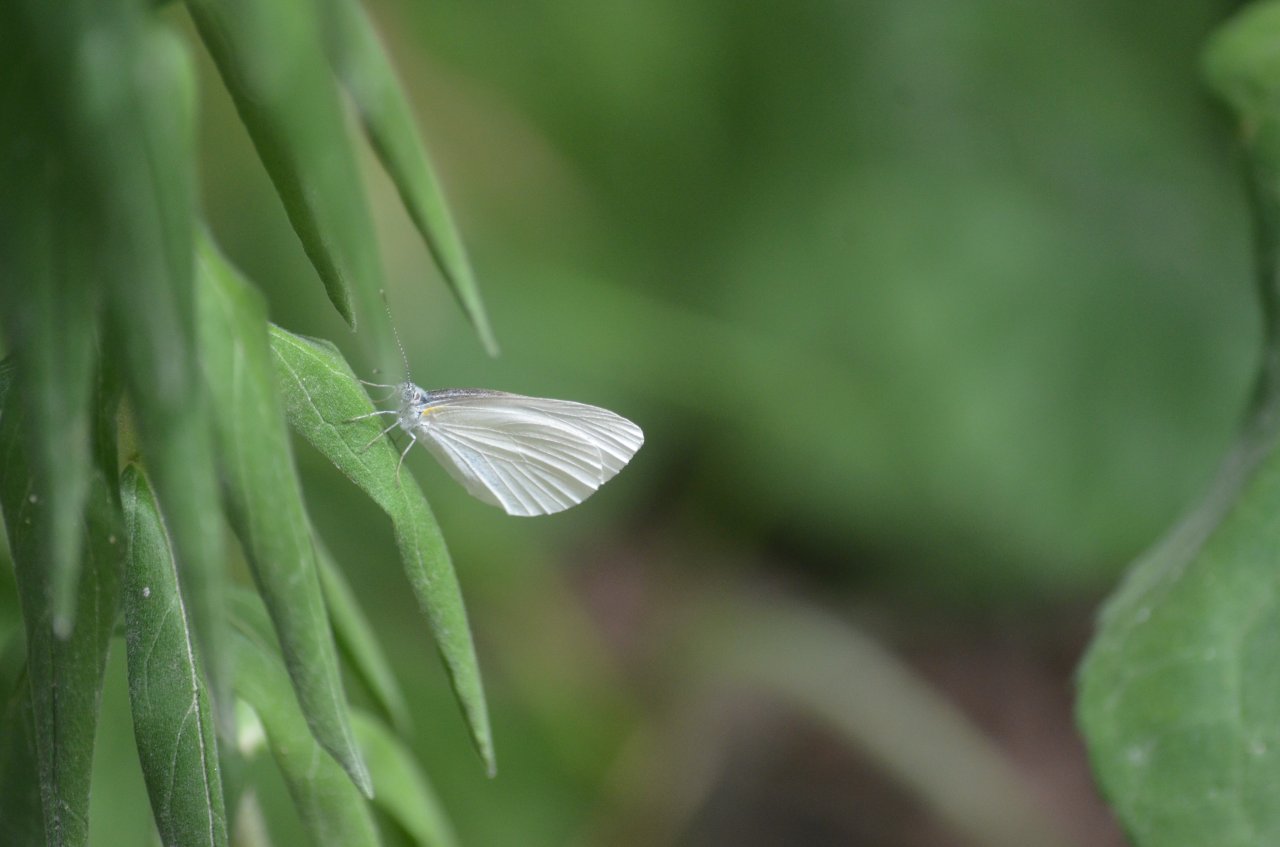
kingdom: Animalia
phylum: Arthropoda
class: Insecta
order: Lepidoptera
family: Pieridae
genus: Pieris
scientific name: Pieris oleracea
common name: Mustard White
